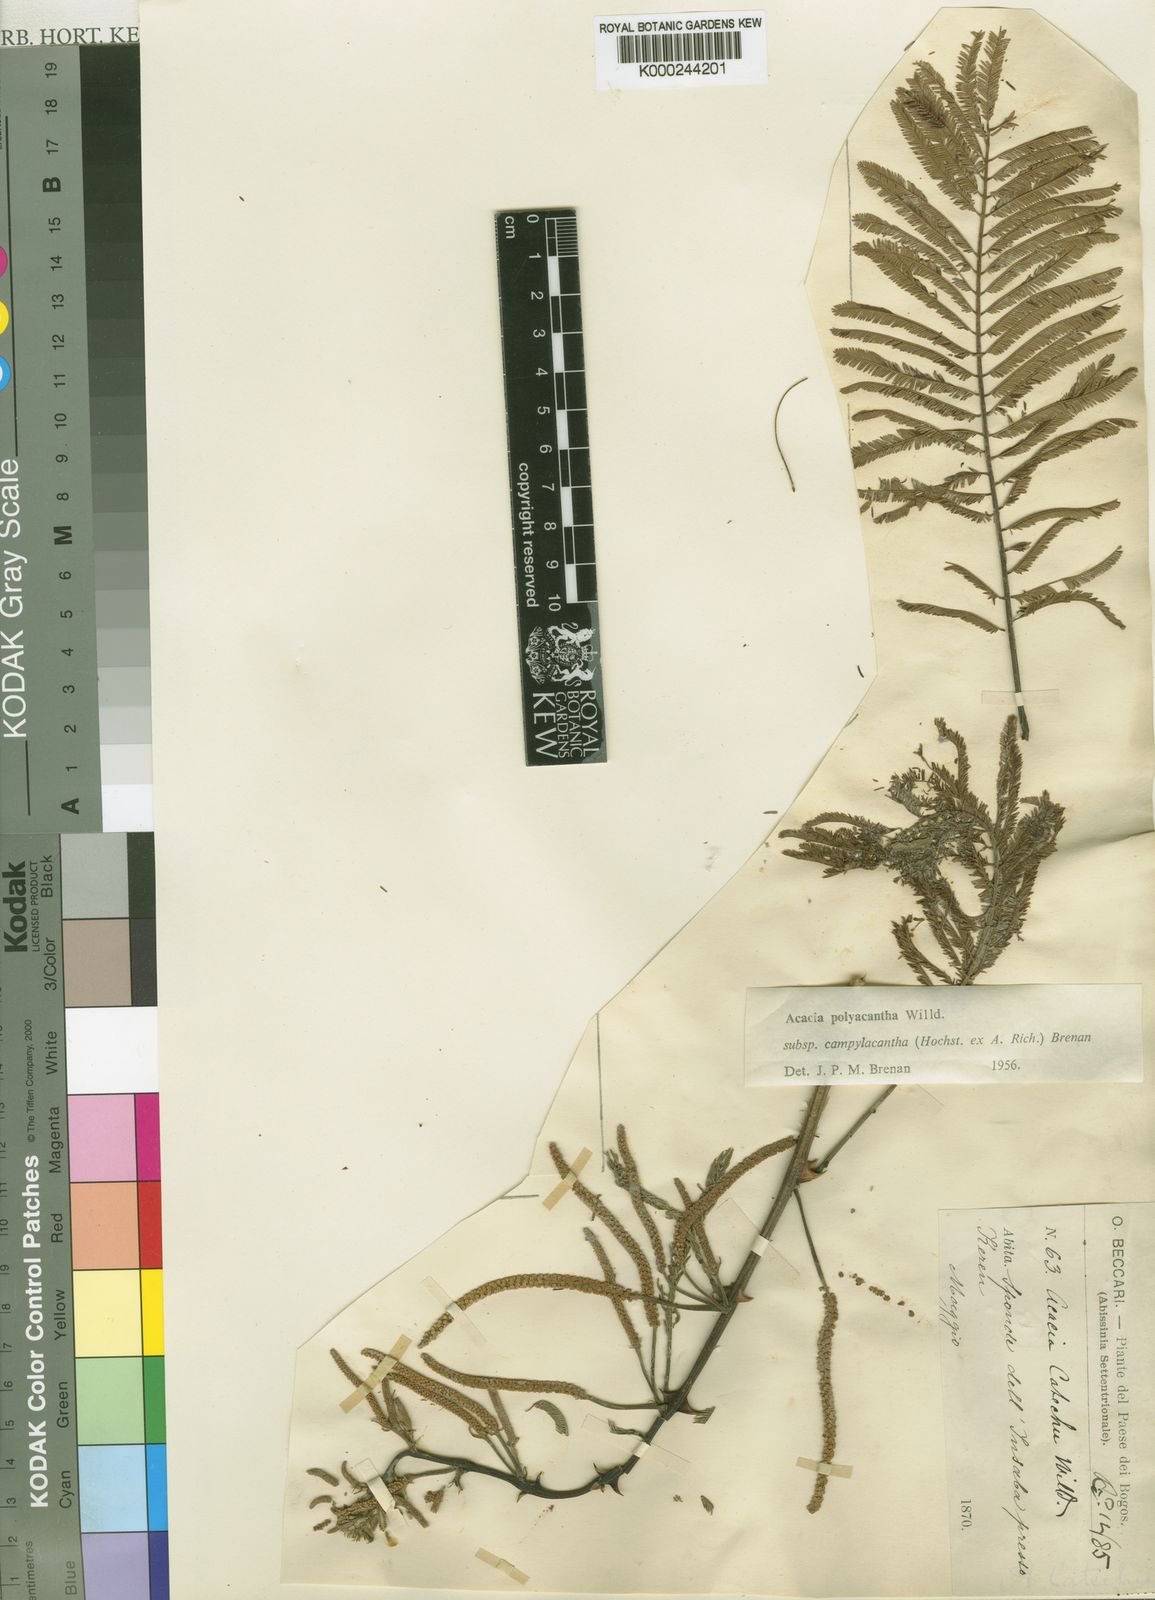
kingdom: Plantae
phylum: Tracheophyta
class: Magnoliopsida
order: Fabales
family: Fabaceae
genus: Senegalia
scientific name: Senegalia polyacantha
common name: Whitethorn
